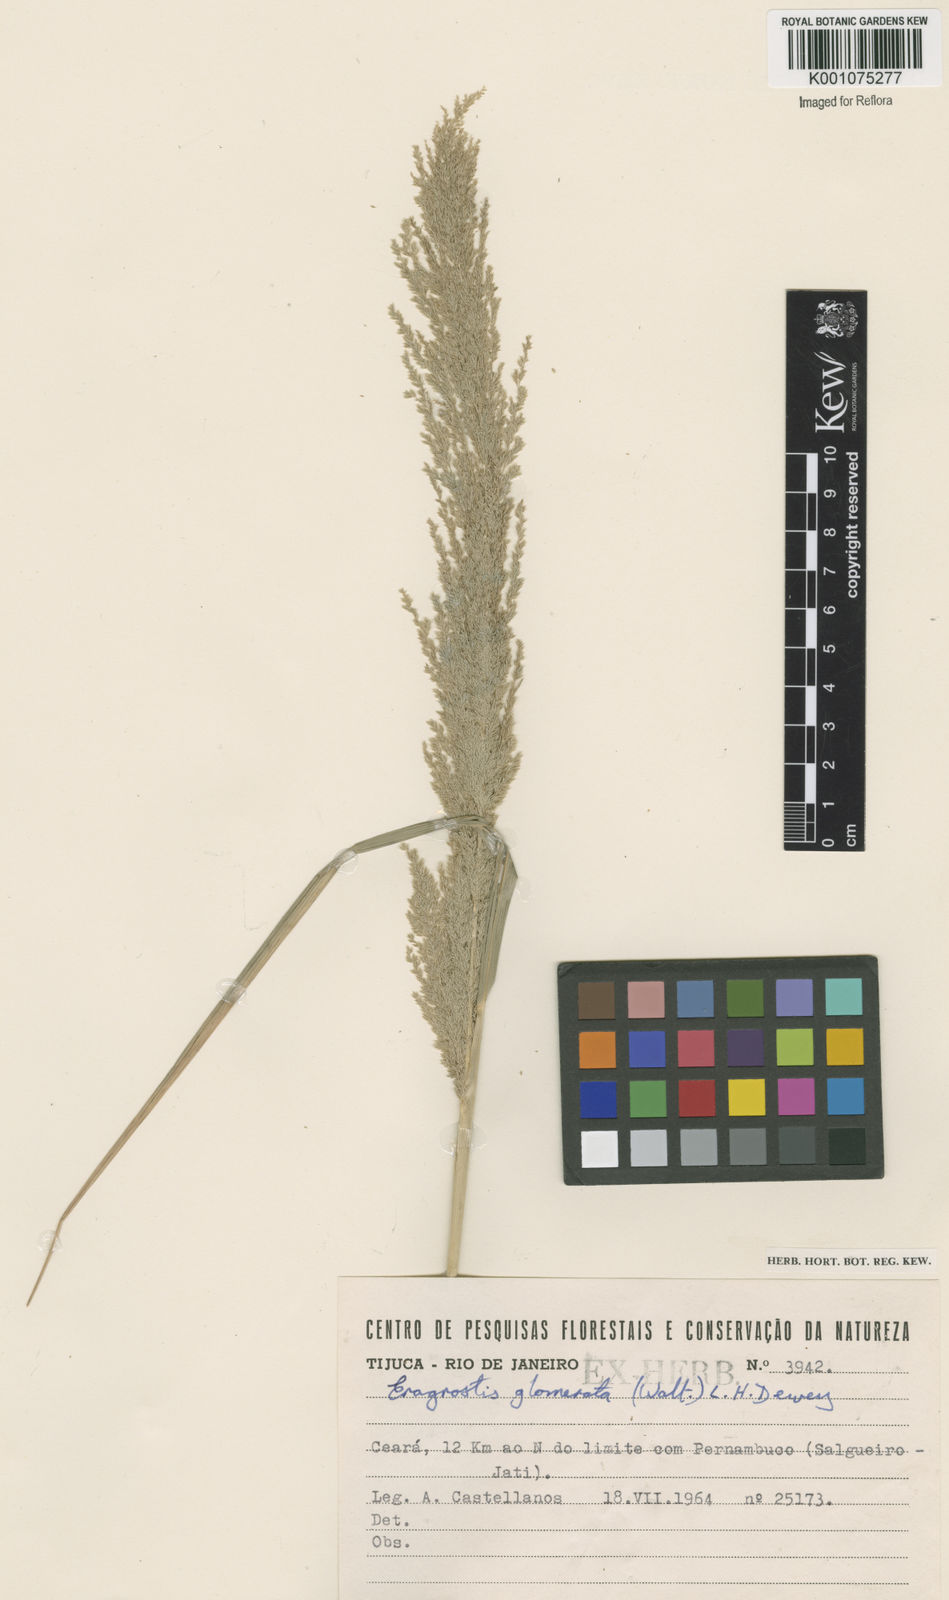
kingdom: Plantae
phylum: Tracheophyta
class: Liliopsida
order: Poales
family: Poaceae
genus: Eragrostis
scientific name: Eragrostis japonica
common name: Pond lovegrass
